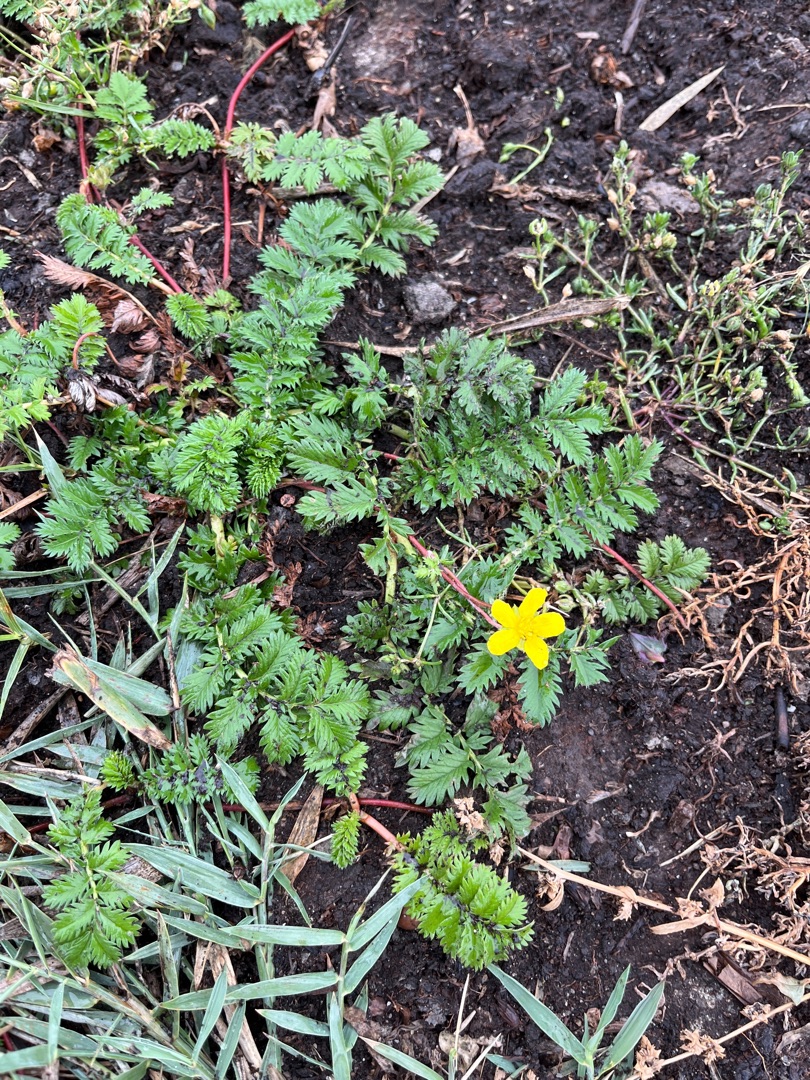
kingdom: Plantae
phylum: Tracheophyta
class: Magnoliopsida
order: Rosales
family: Rosaceae
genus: Argentina
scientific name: Argentina anserina
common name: Gåsepotentil
